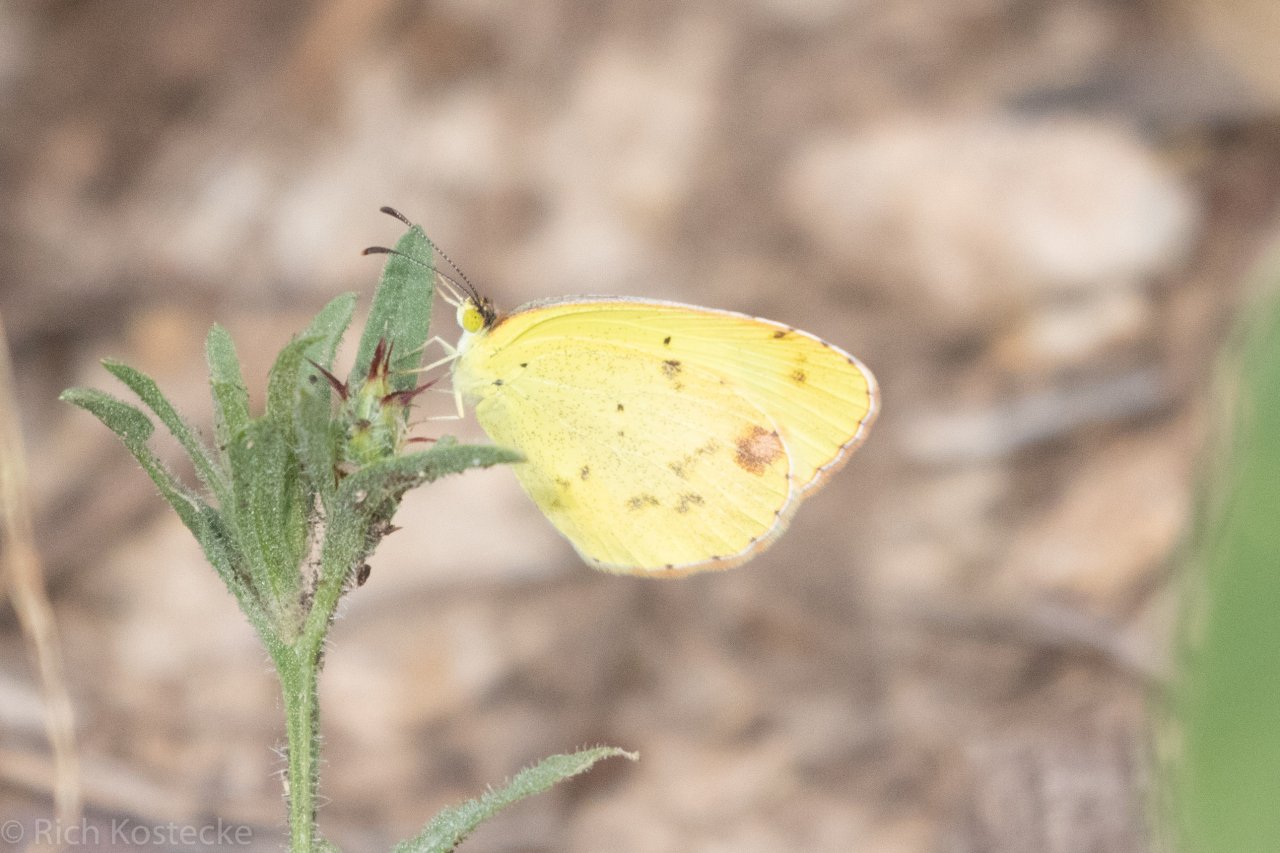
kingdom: Animalia
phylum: Arthropoda
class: Insecta
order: Lepidoptera
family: Pieridae
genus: Pyrisitia
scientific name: Pyrisitia lisa
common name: Little Yellow
